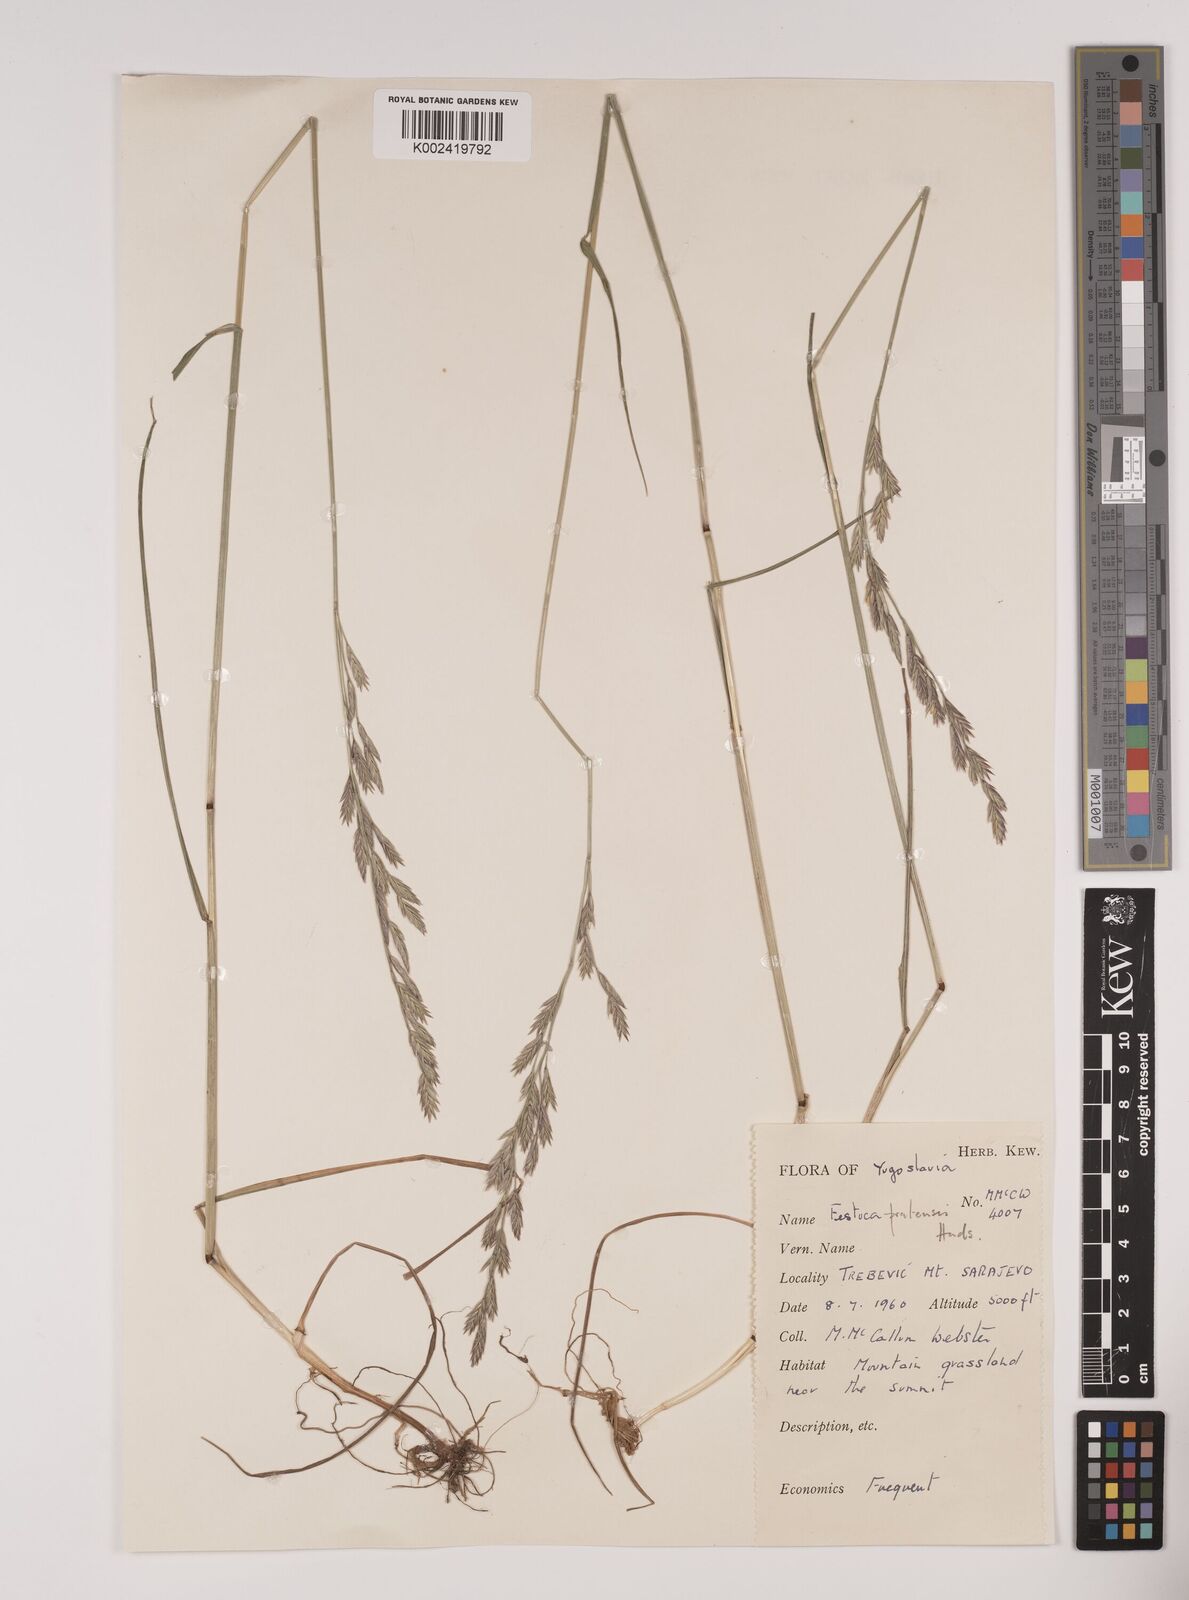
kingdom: Plantae
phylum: Tracheophyta
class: Liliopsida
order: Poales
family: Poaceae
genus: Festuca
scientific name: Festuca
